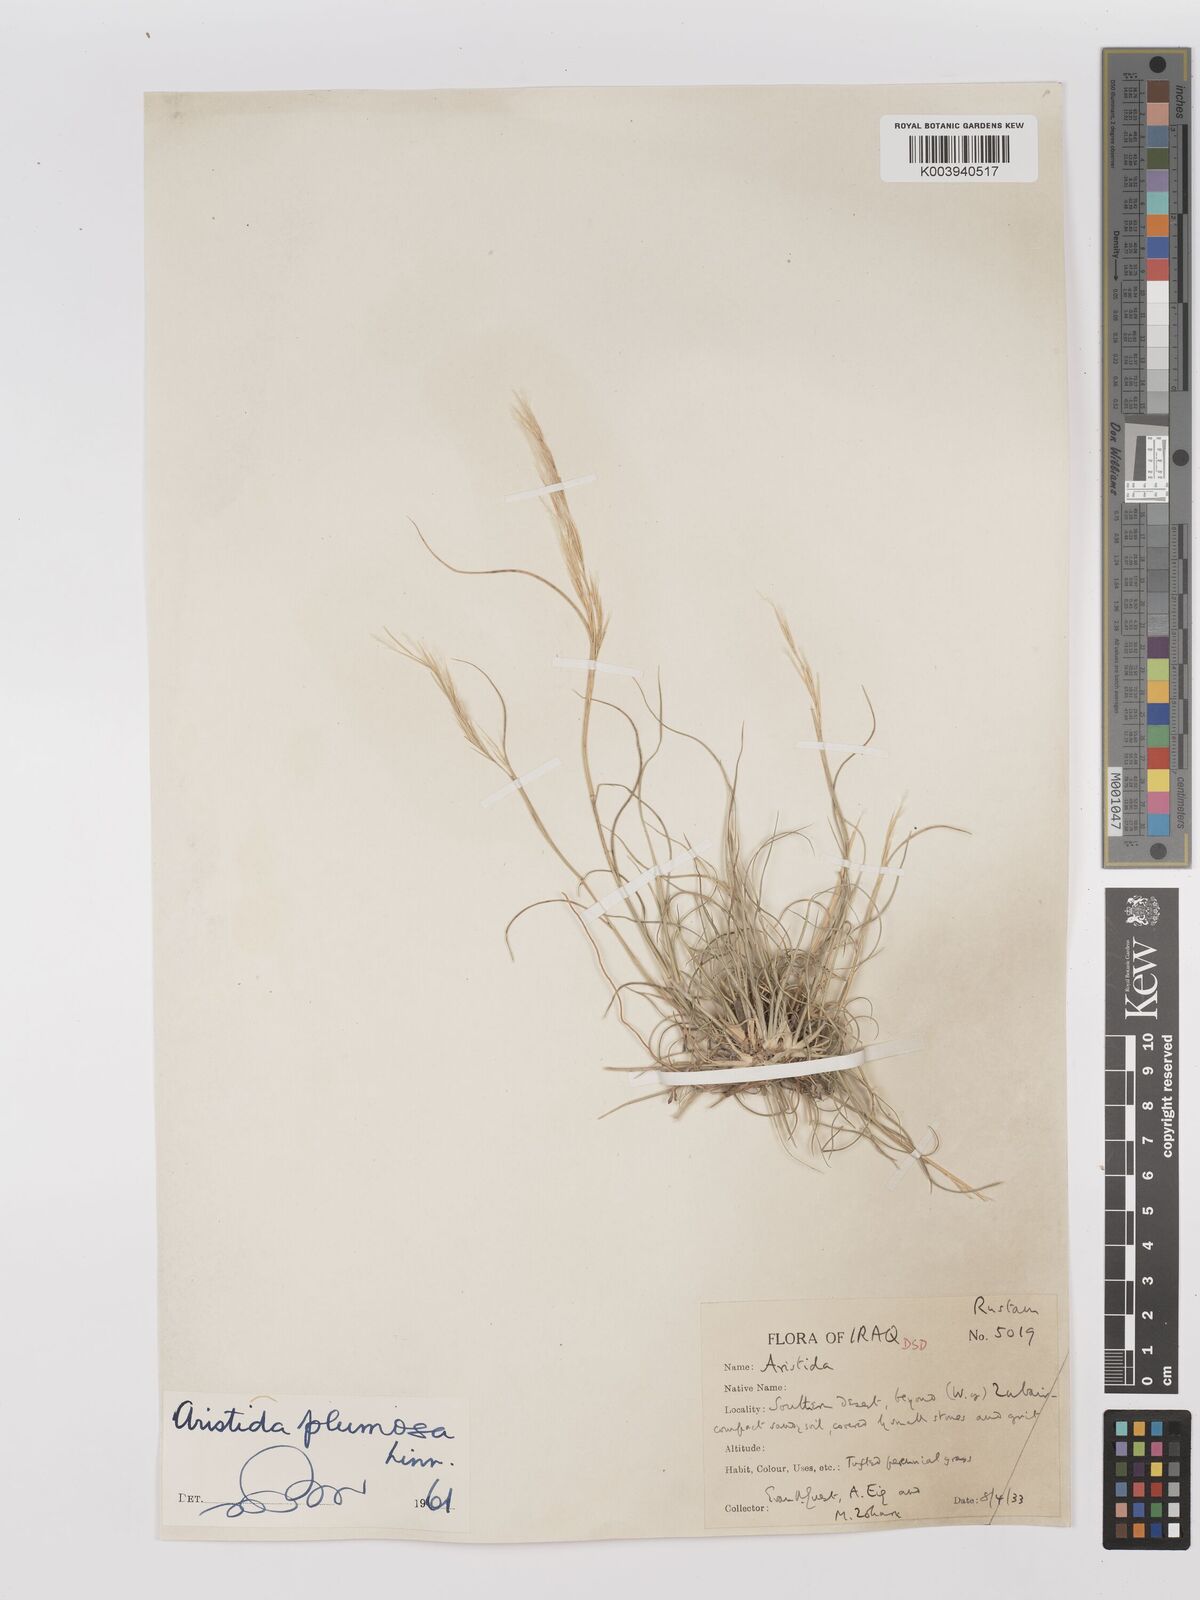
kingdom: Plantae
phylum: Tracheophyta
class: Liliopsida
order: Poales
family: Poaceae
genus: Stipagrostis
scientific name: Stipagrostis plumosa
